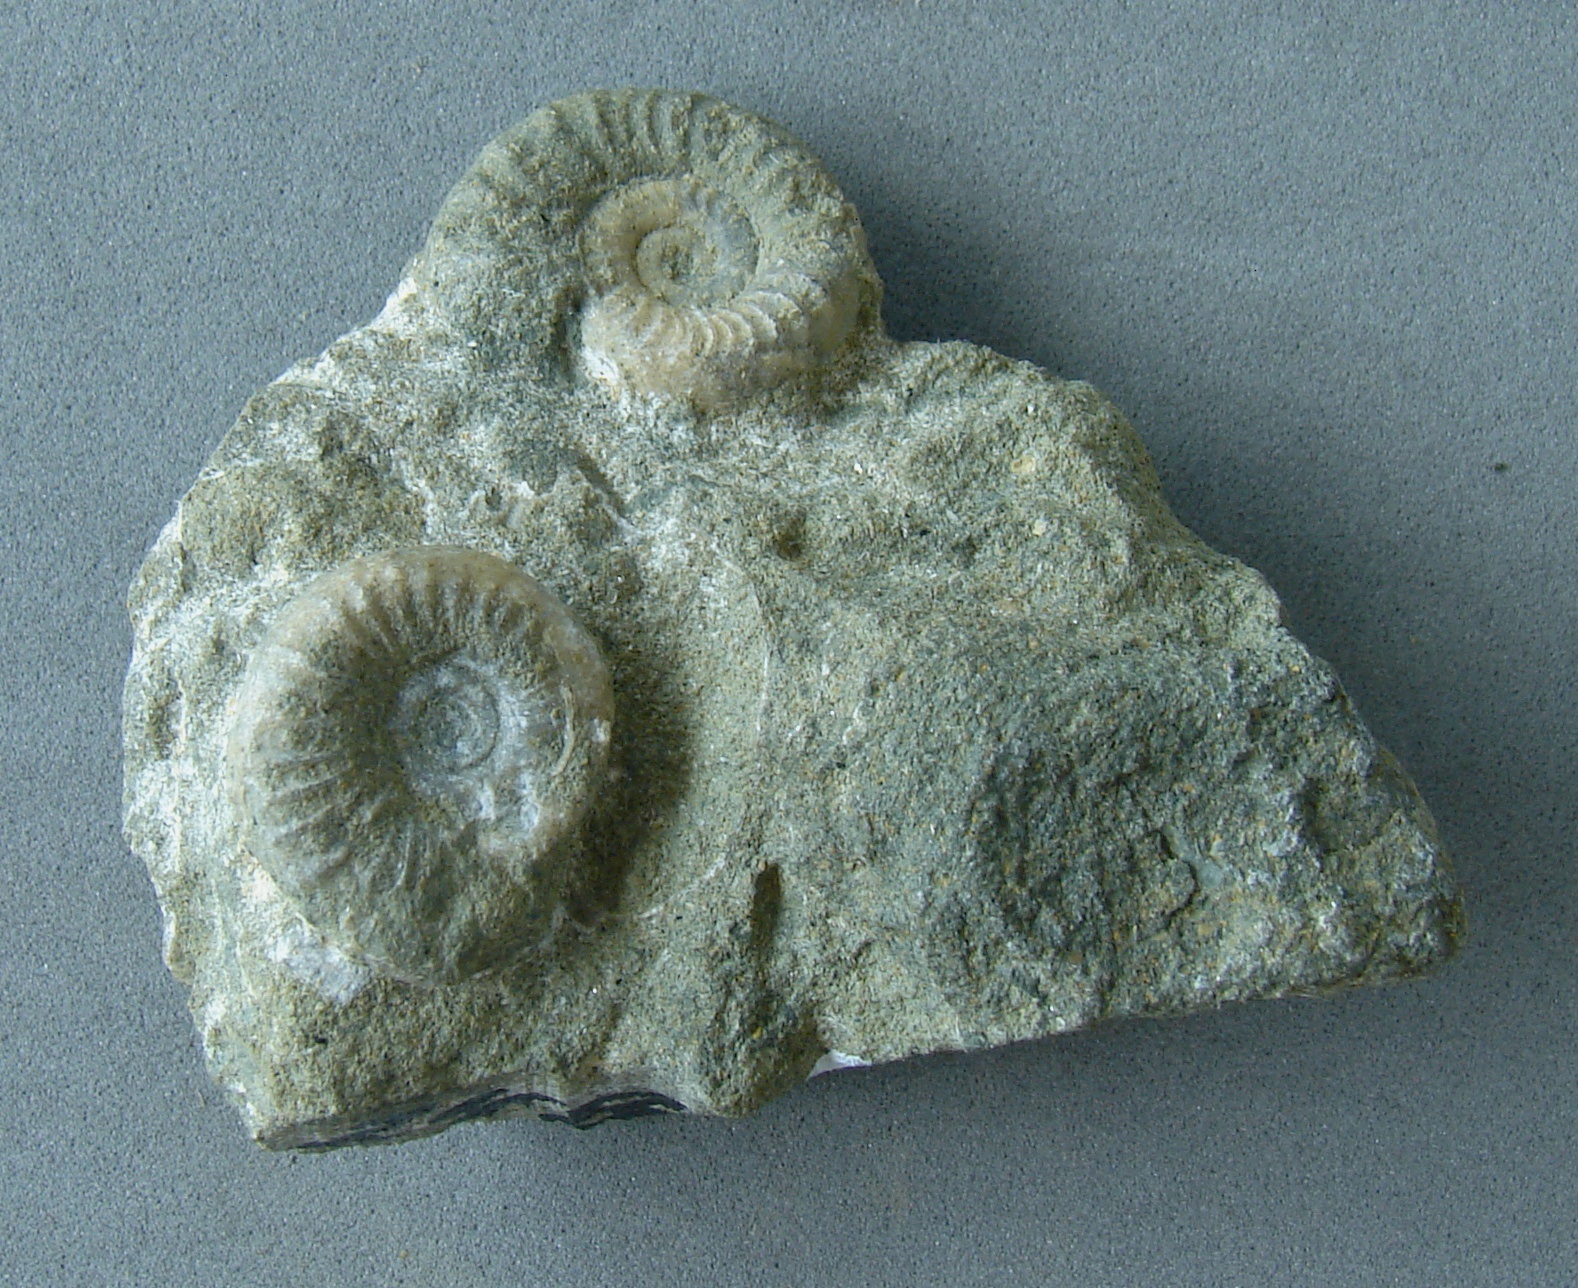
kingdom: Animalia
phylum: Mollusca
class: Cephalopoda
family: Hildoceratidae
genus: Dumortieria
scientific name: Dumortieria
